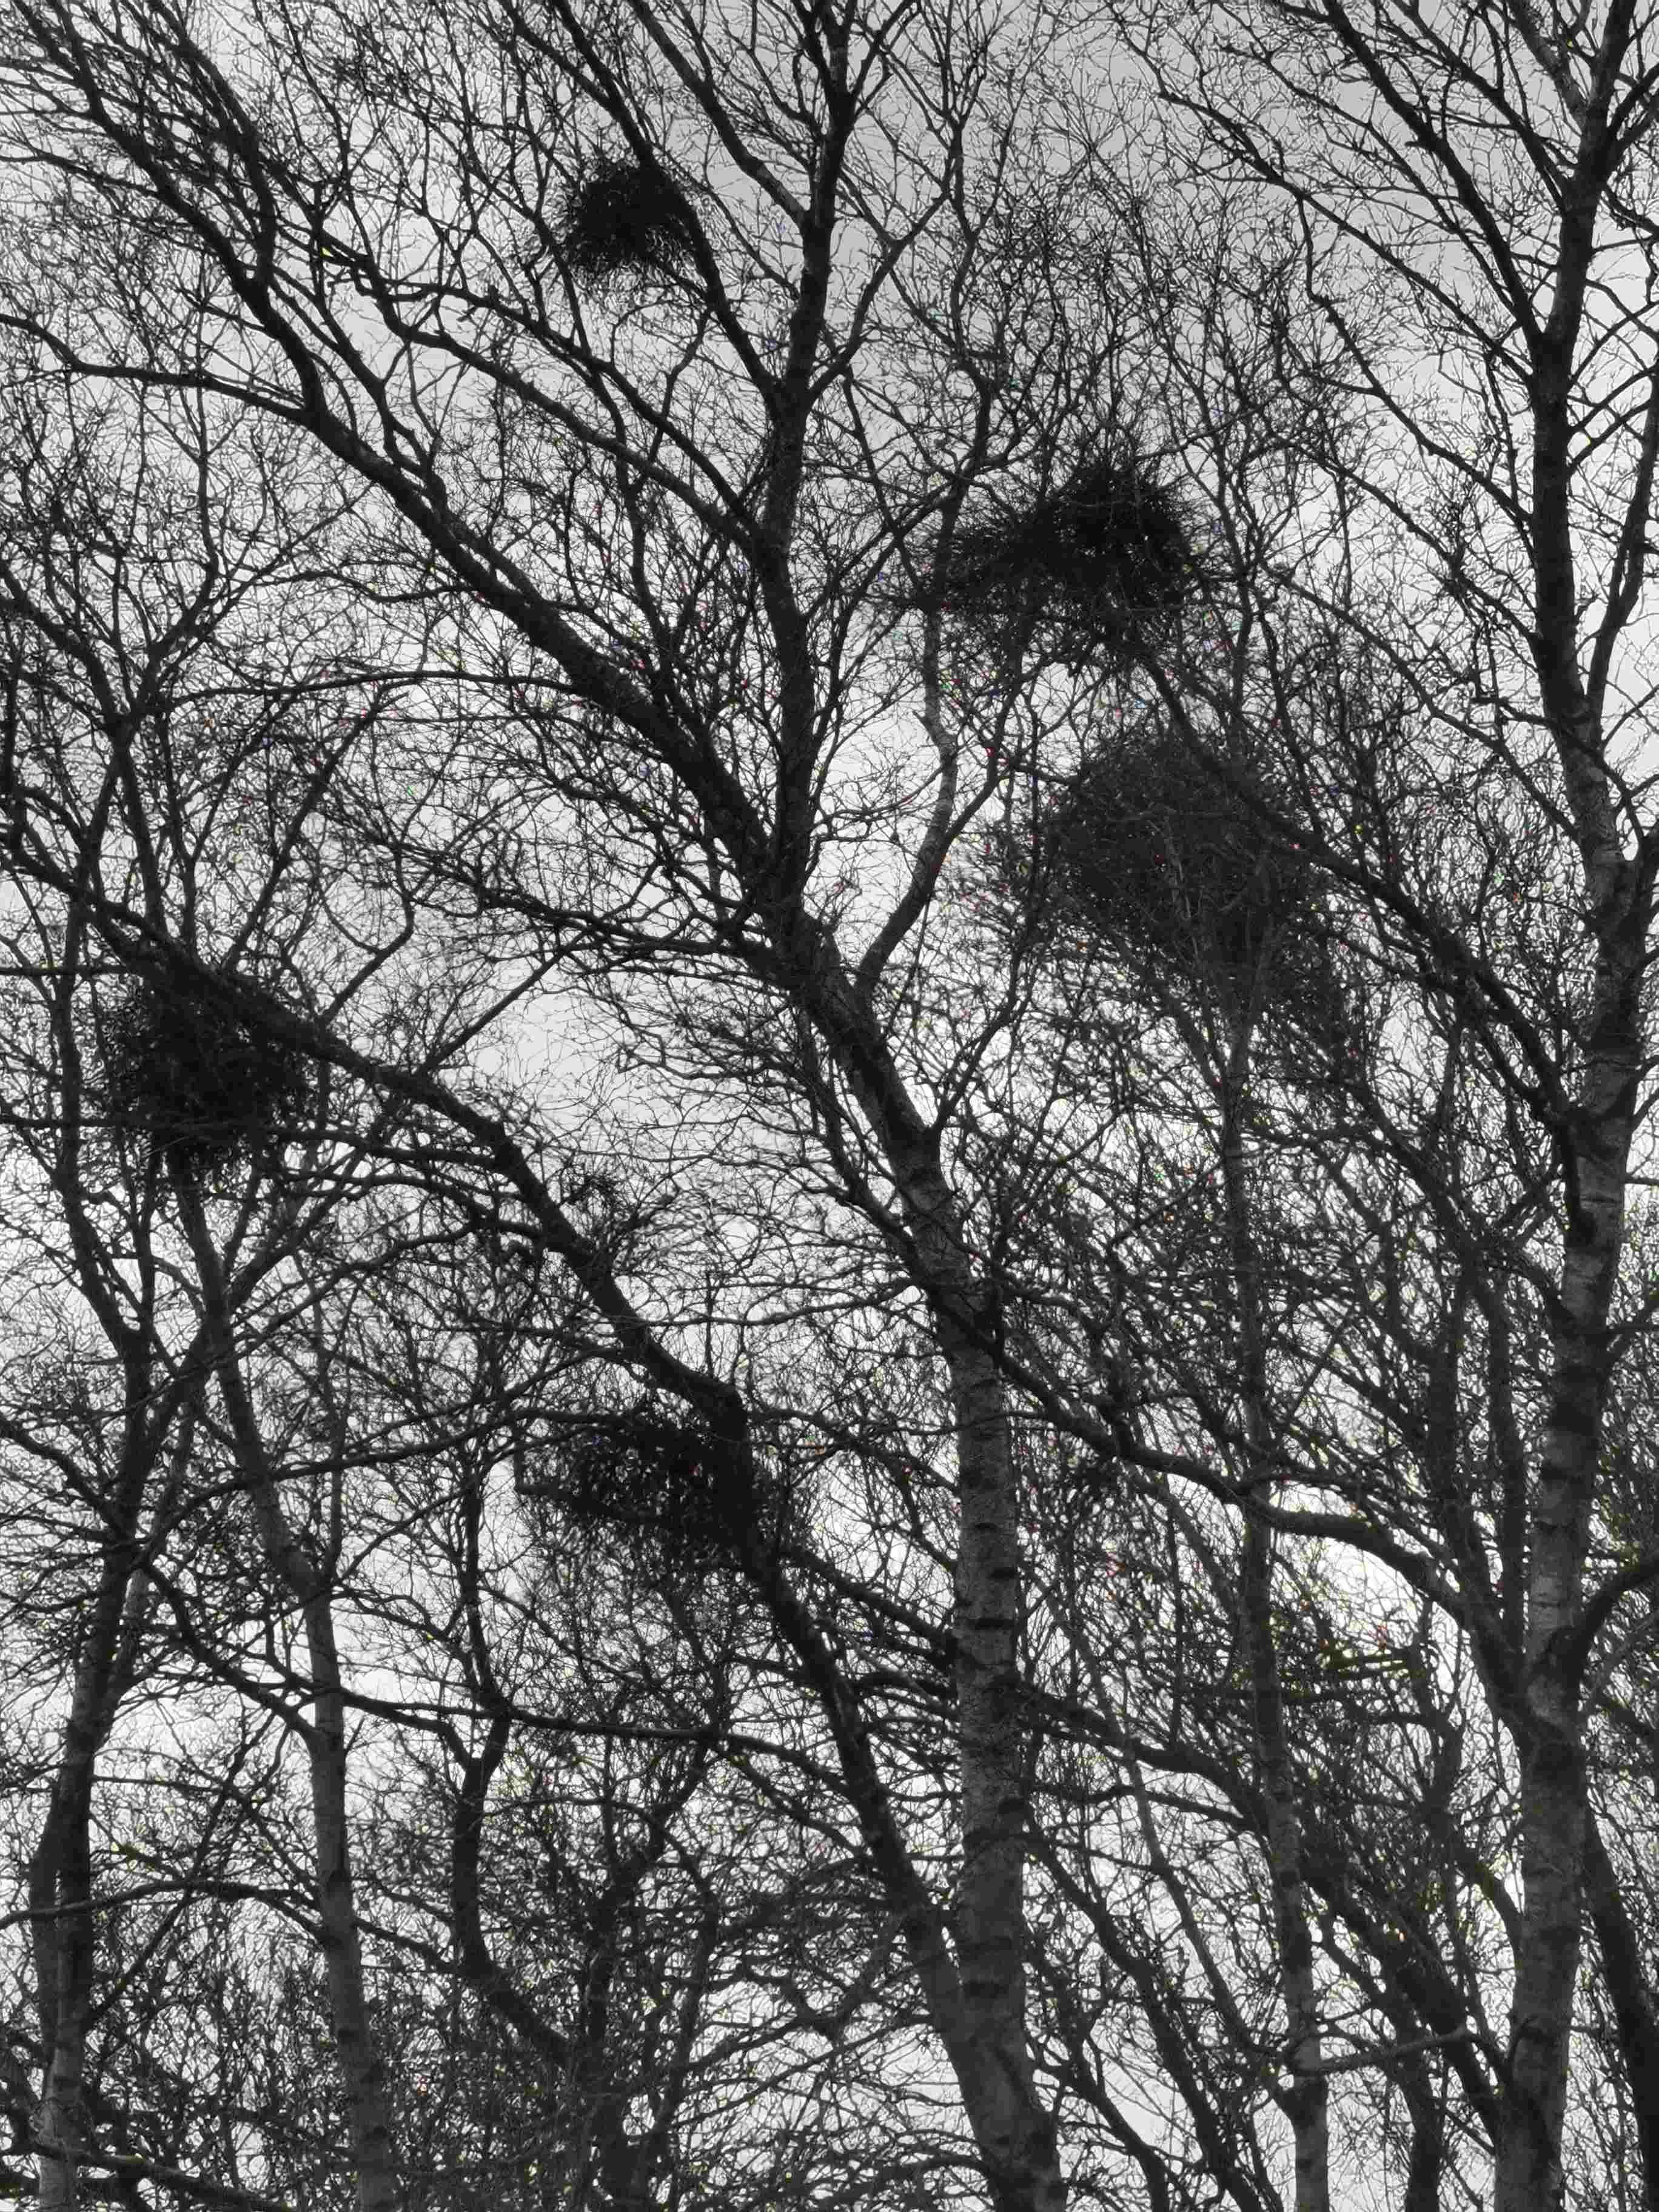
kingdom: Fungi
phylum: Ascomycota
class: Taphrinomycetes
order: Taphrinales
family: Taphrinaceae
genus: Taphrina
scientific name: Taphrina betulina
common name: hekse-sækdug
